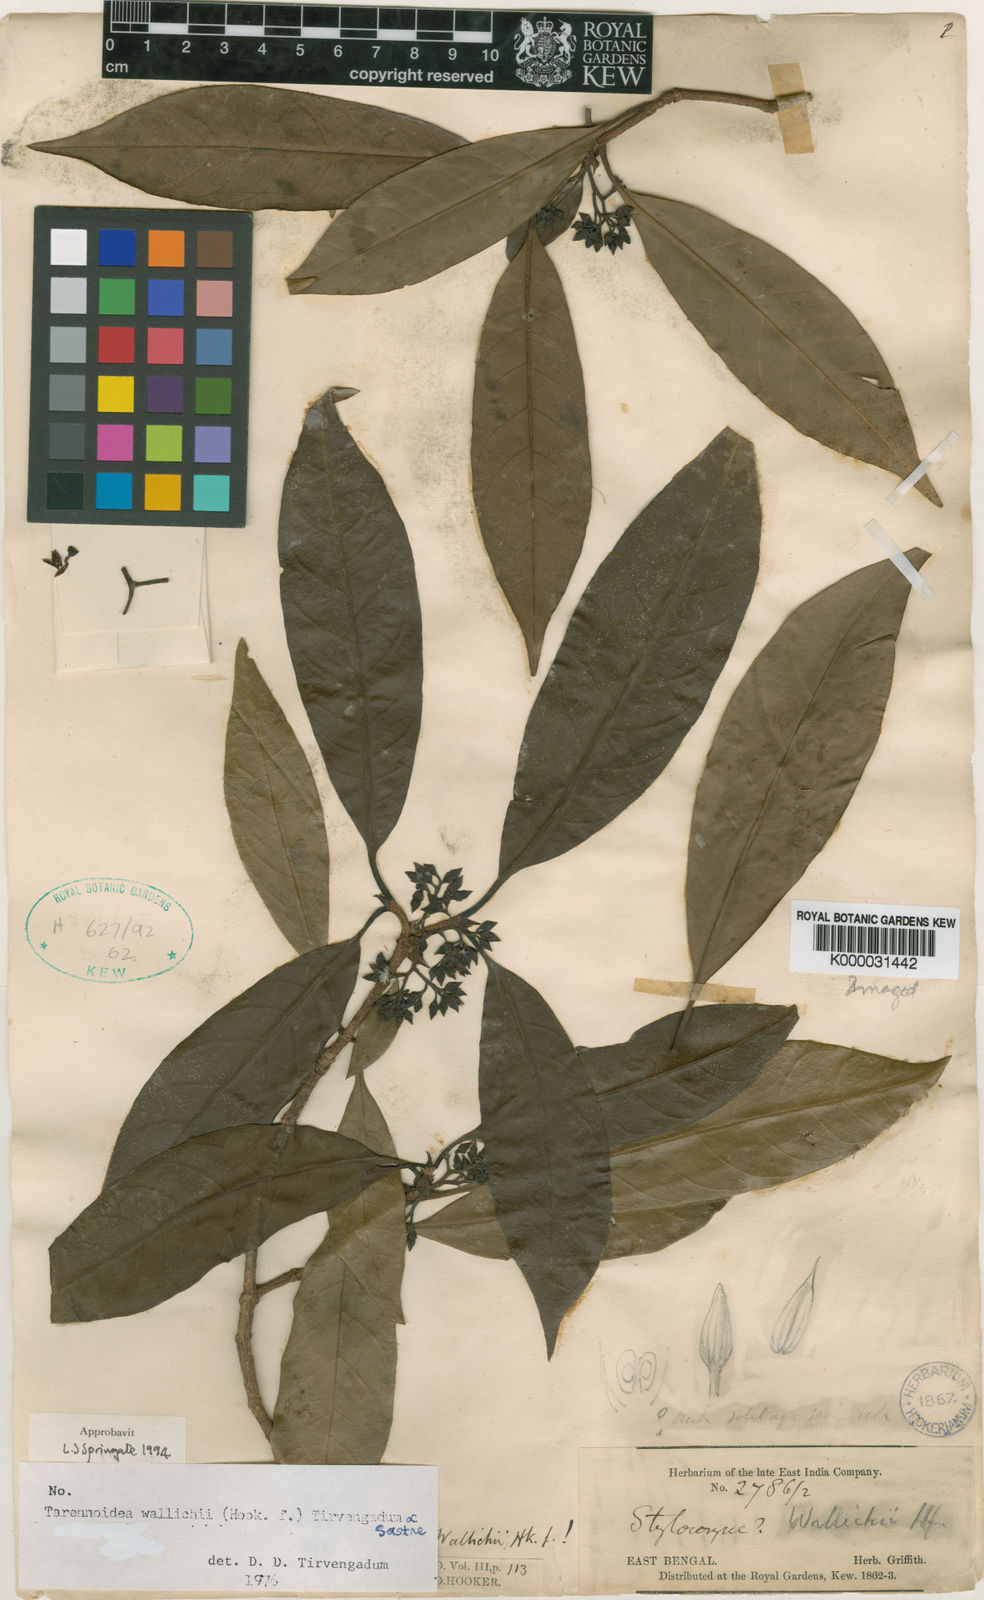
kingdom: Plantae
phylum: Tracheophyta
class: Magnoliopsida
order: Gentianales
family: Rubiaceae
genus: Tarennoidea
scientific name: Tarennoidea wallichii
